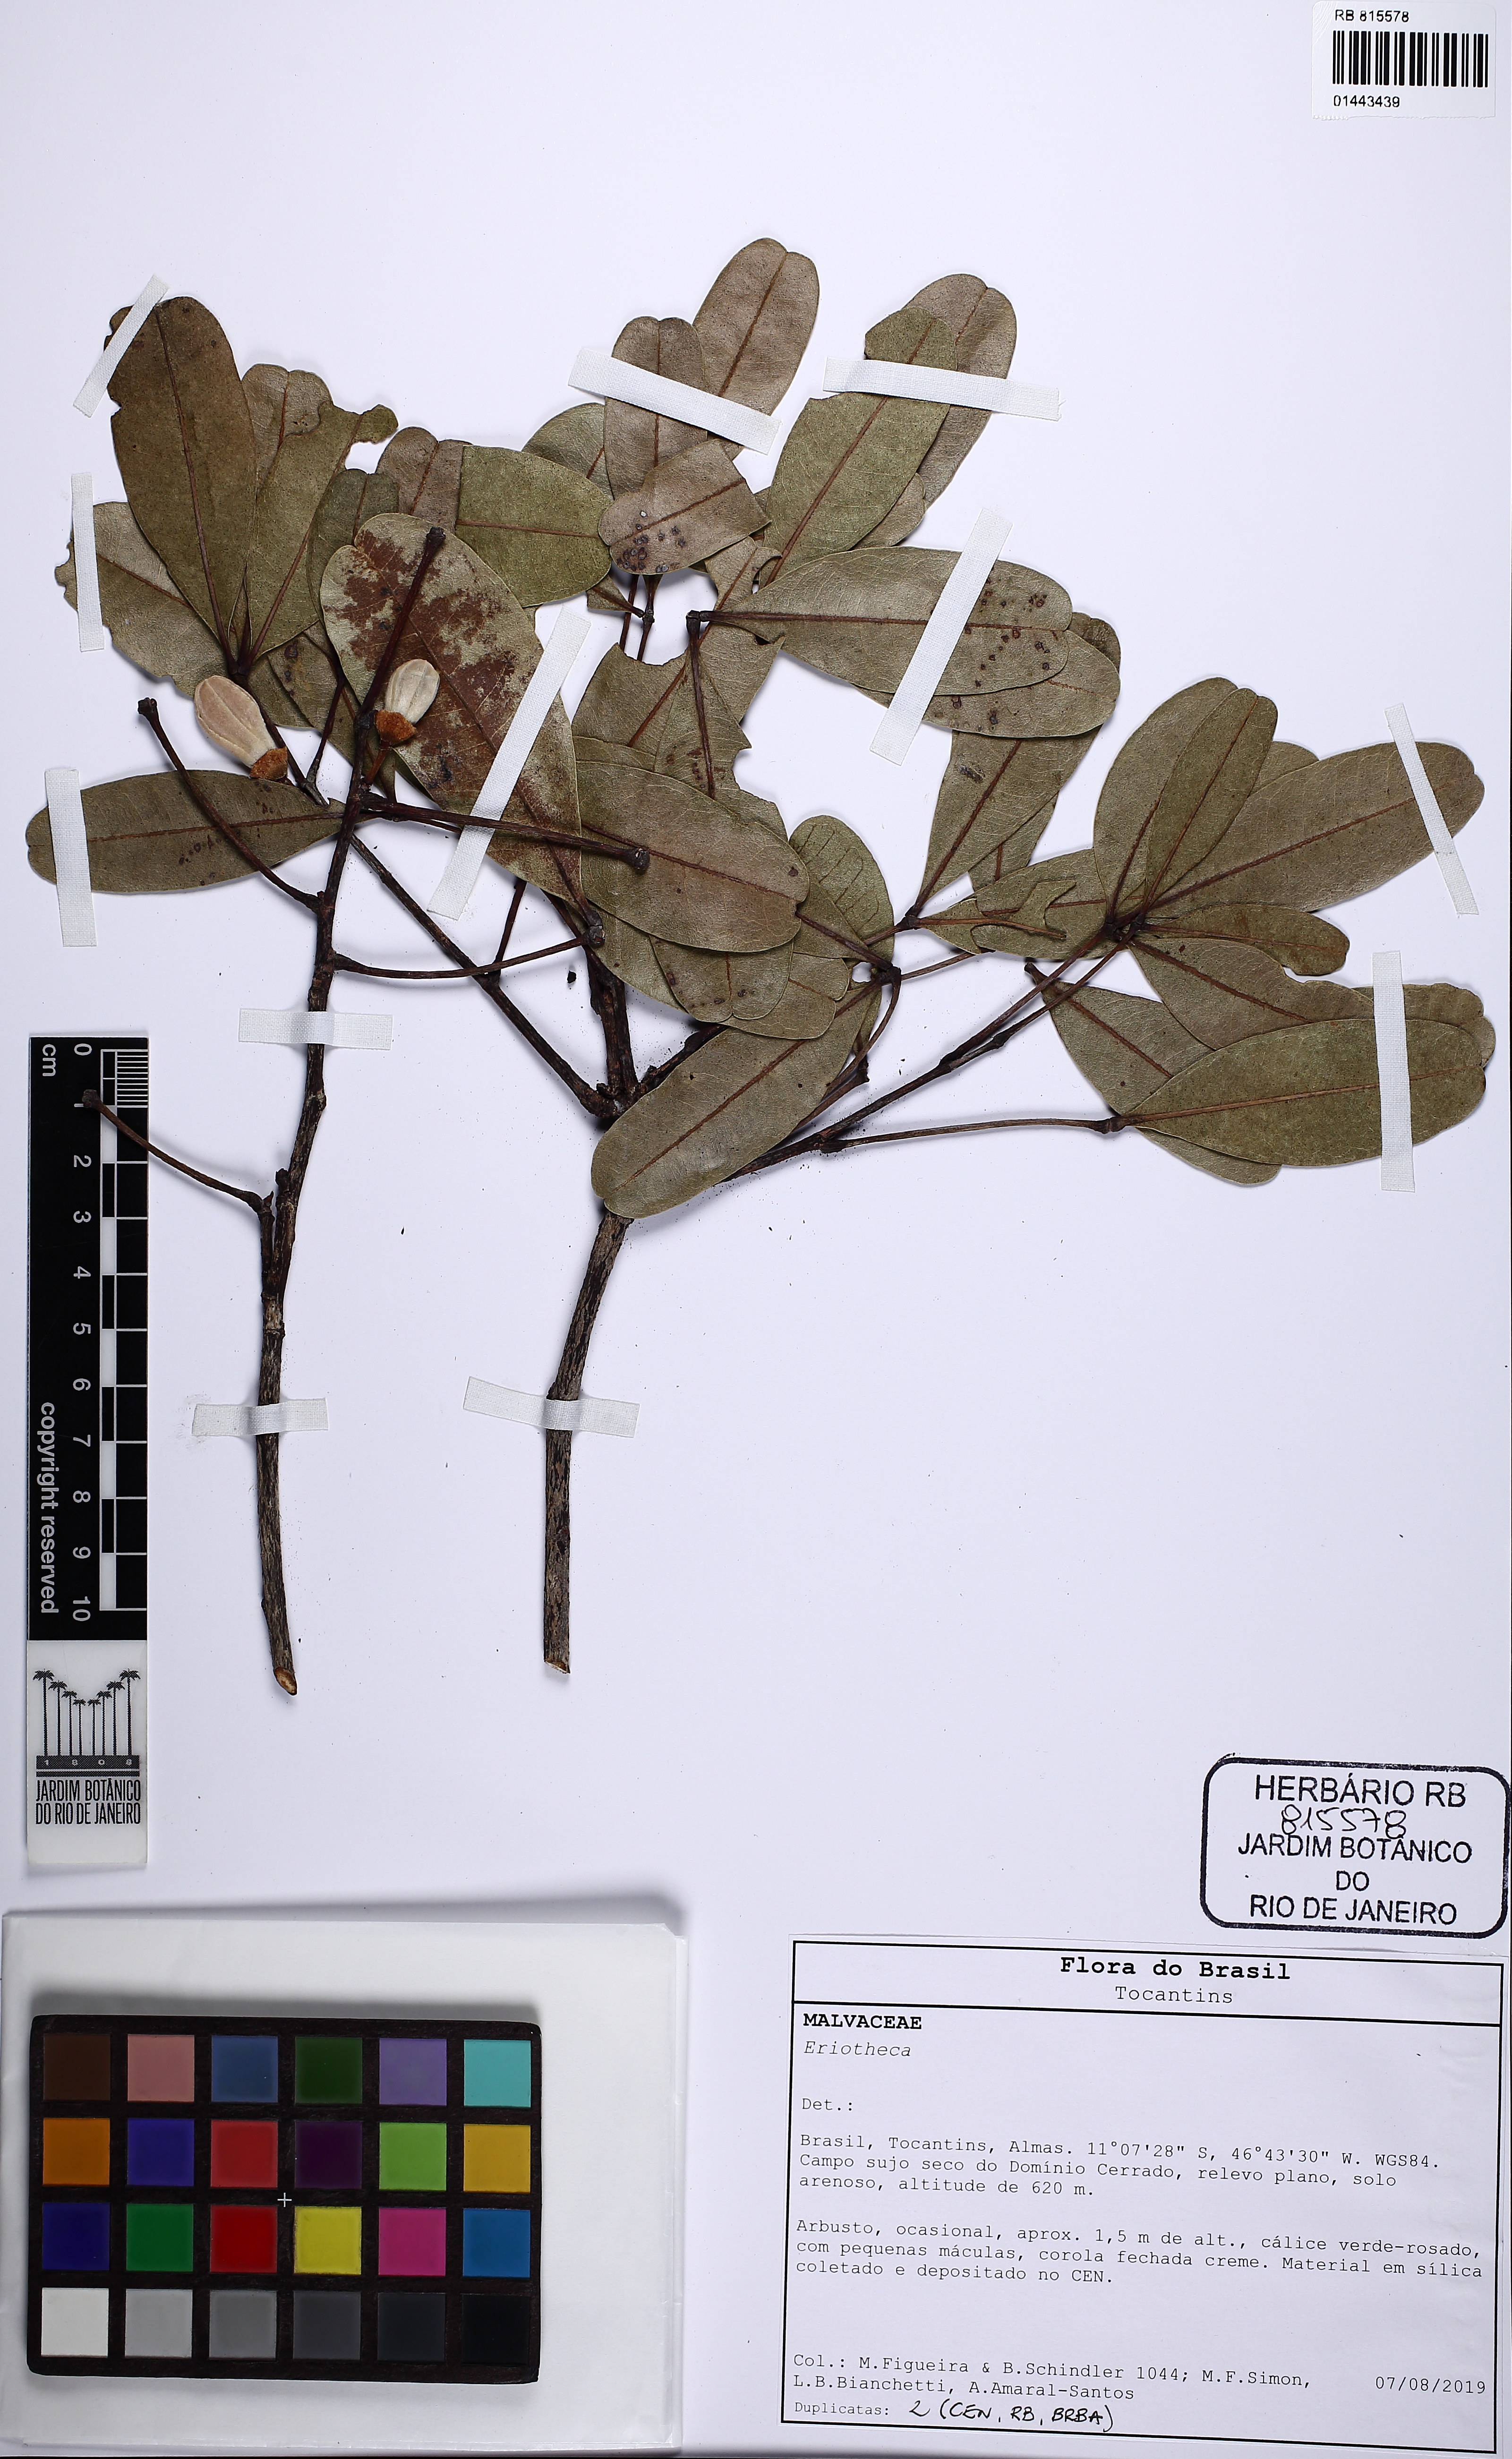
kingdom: Plantae
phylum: Tracheophyta
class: Magnoliopsida
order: Malvales
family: Malvaceae
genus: Eriotheca
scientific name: Eriotheca
